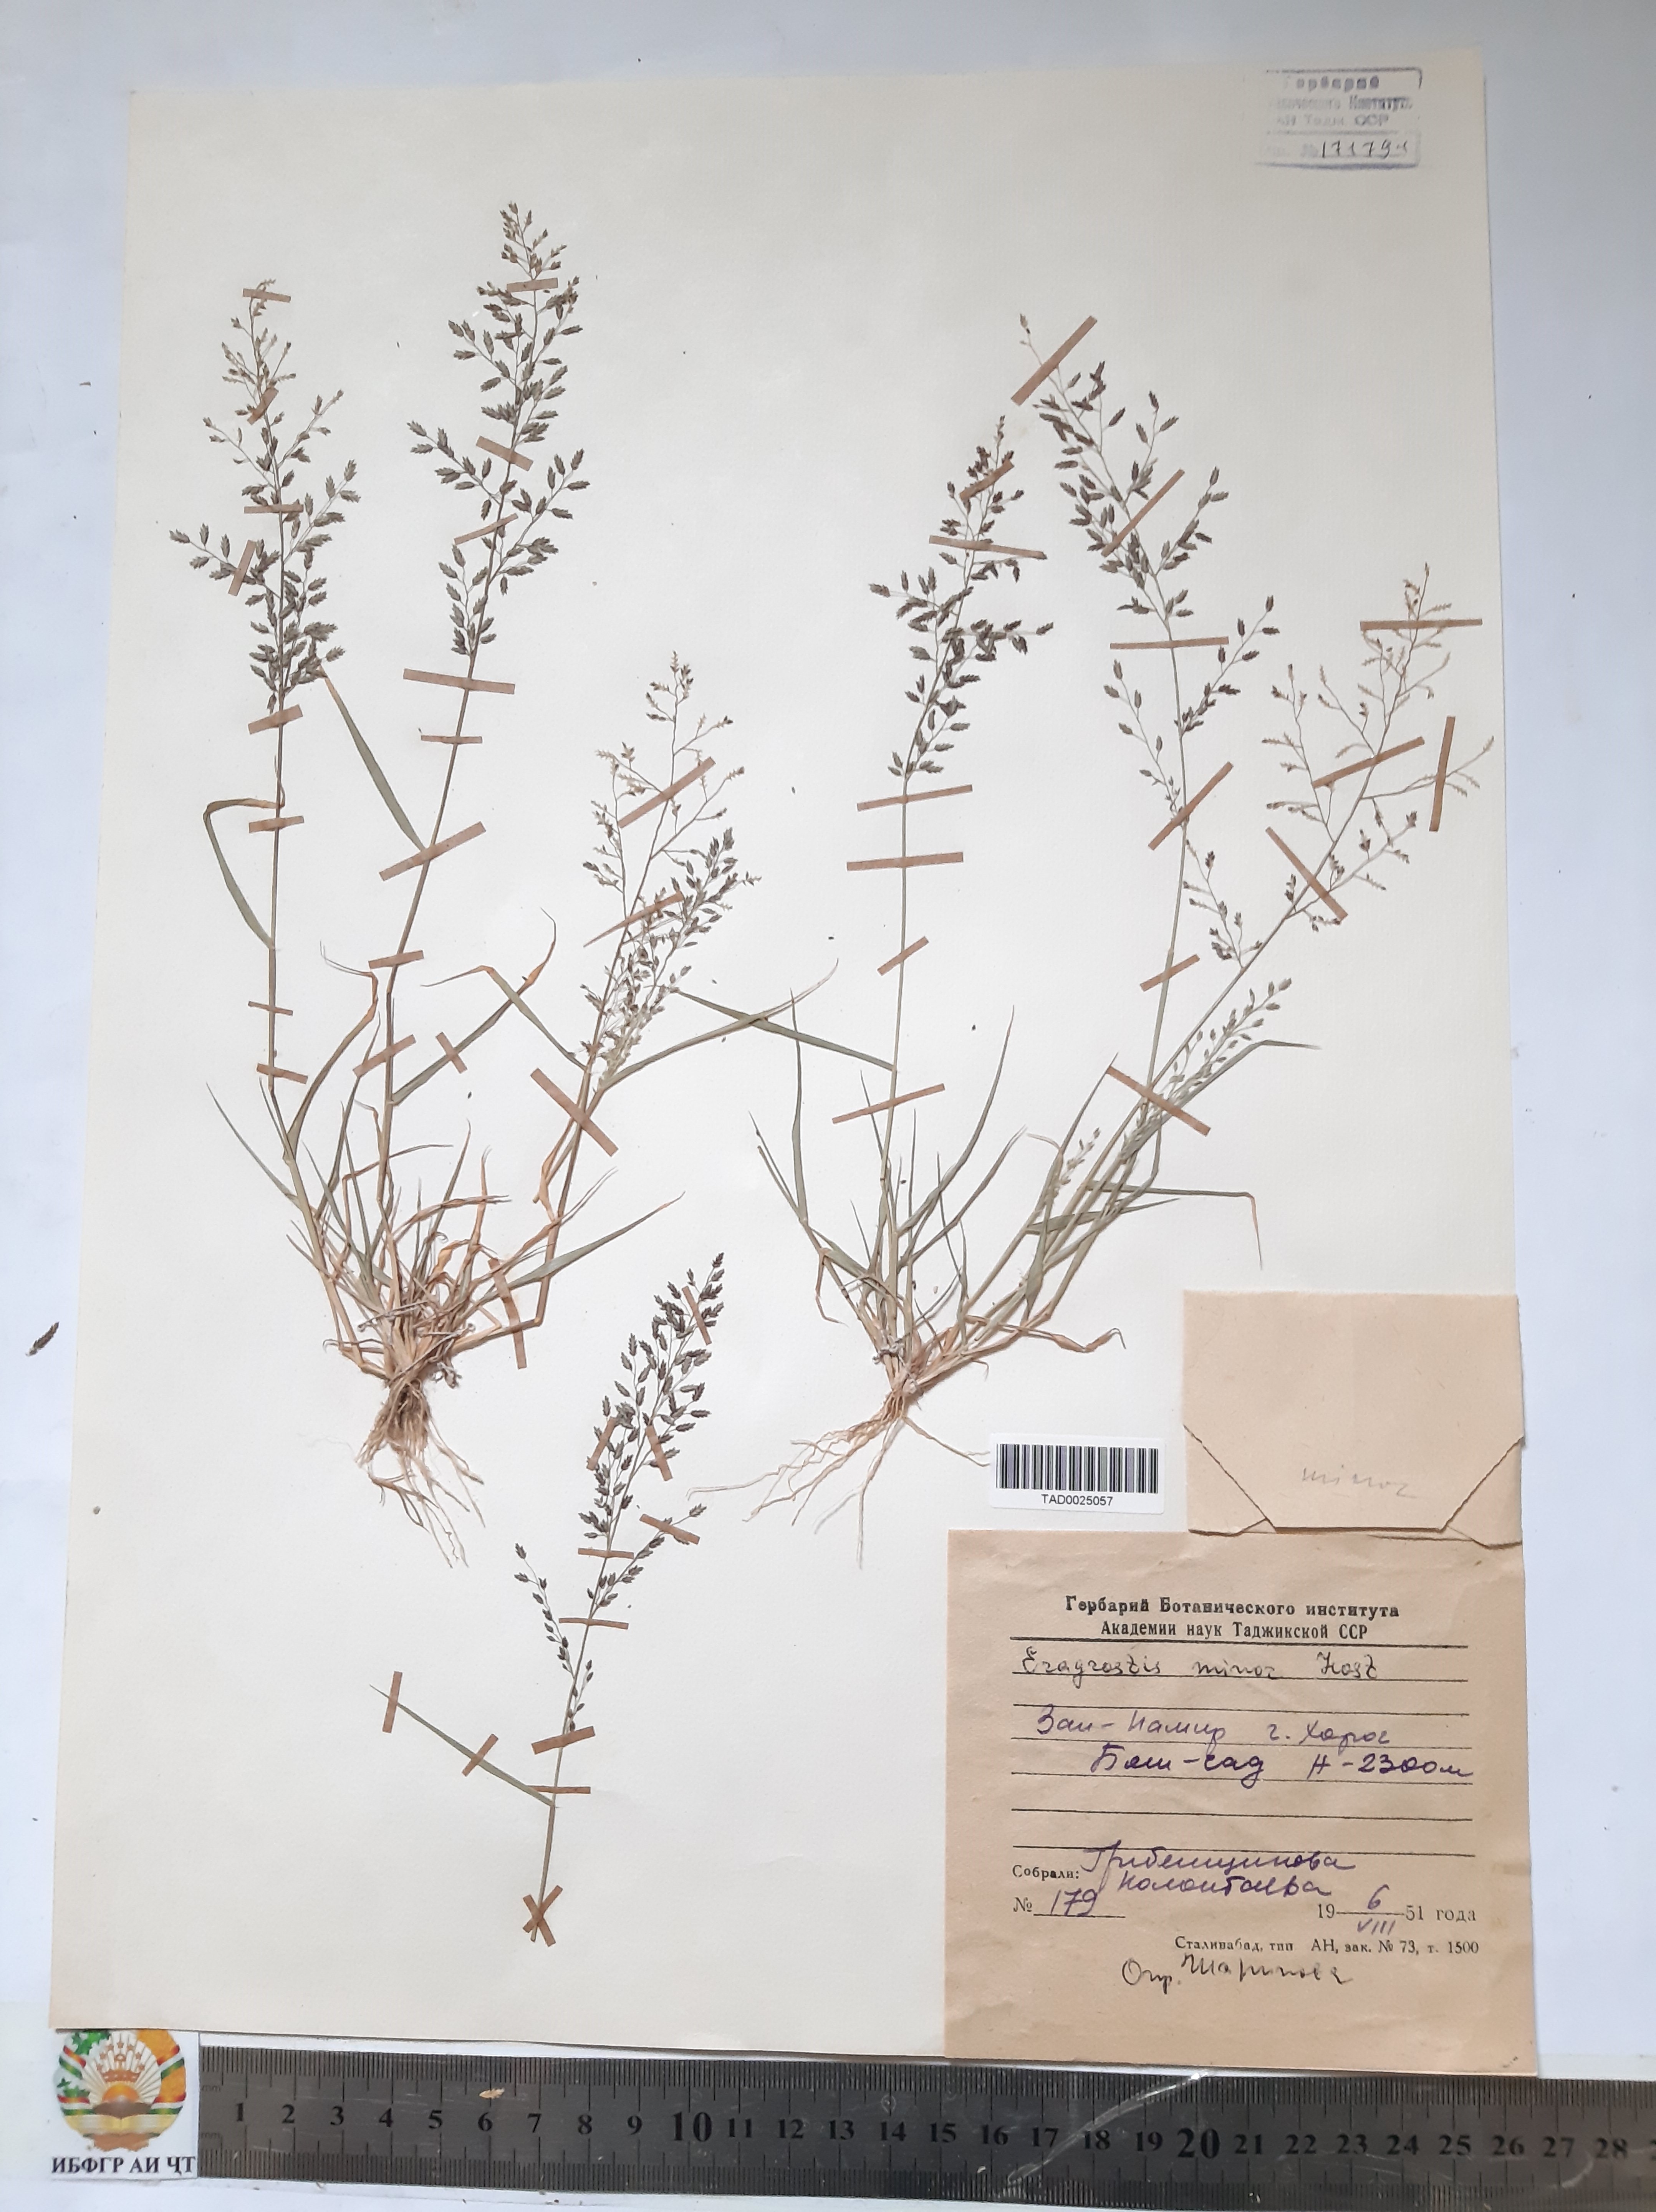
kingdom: Plantae
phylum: Tracheophyta
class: Liliopsida
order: Poales
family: Poaceae
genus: Eragrostis
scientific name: Eragrostis minor
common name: Small love-grass
